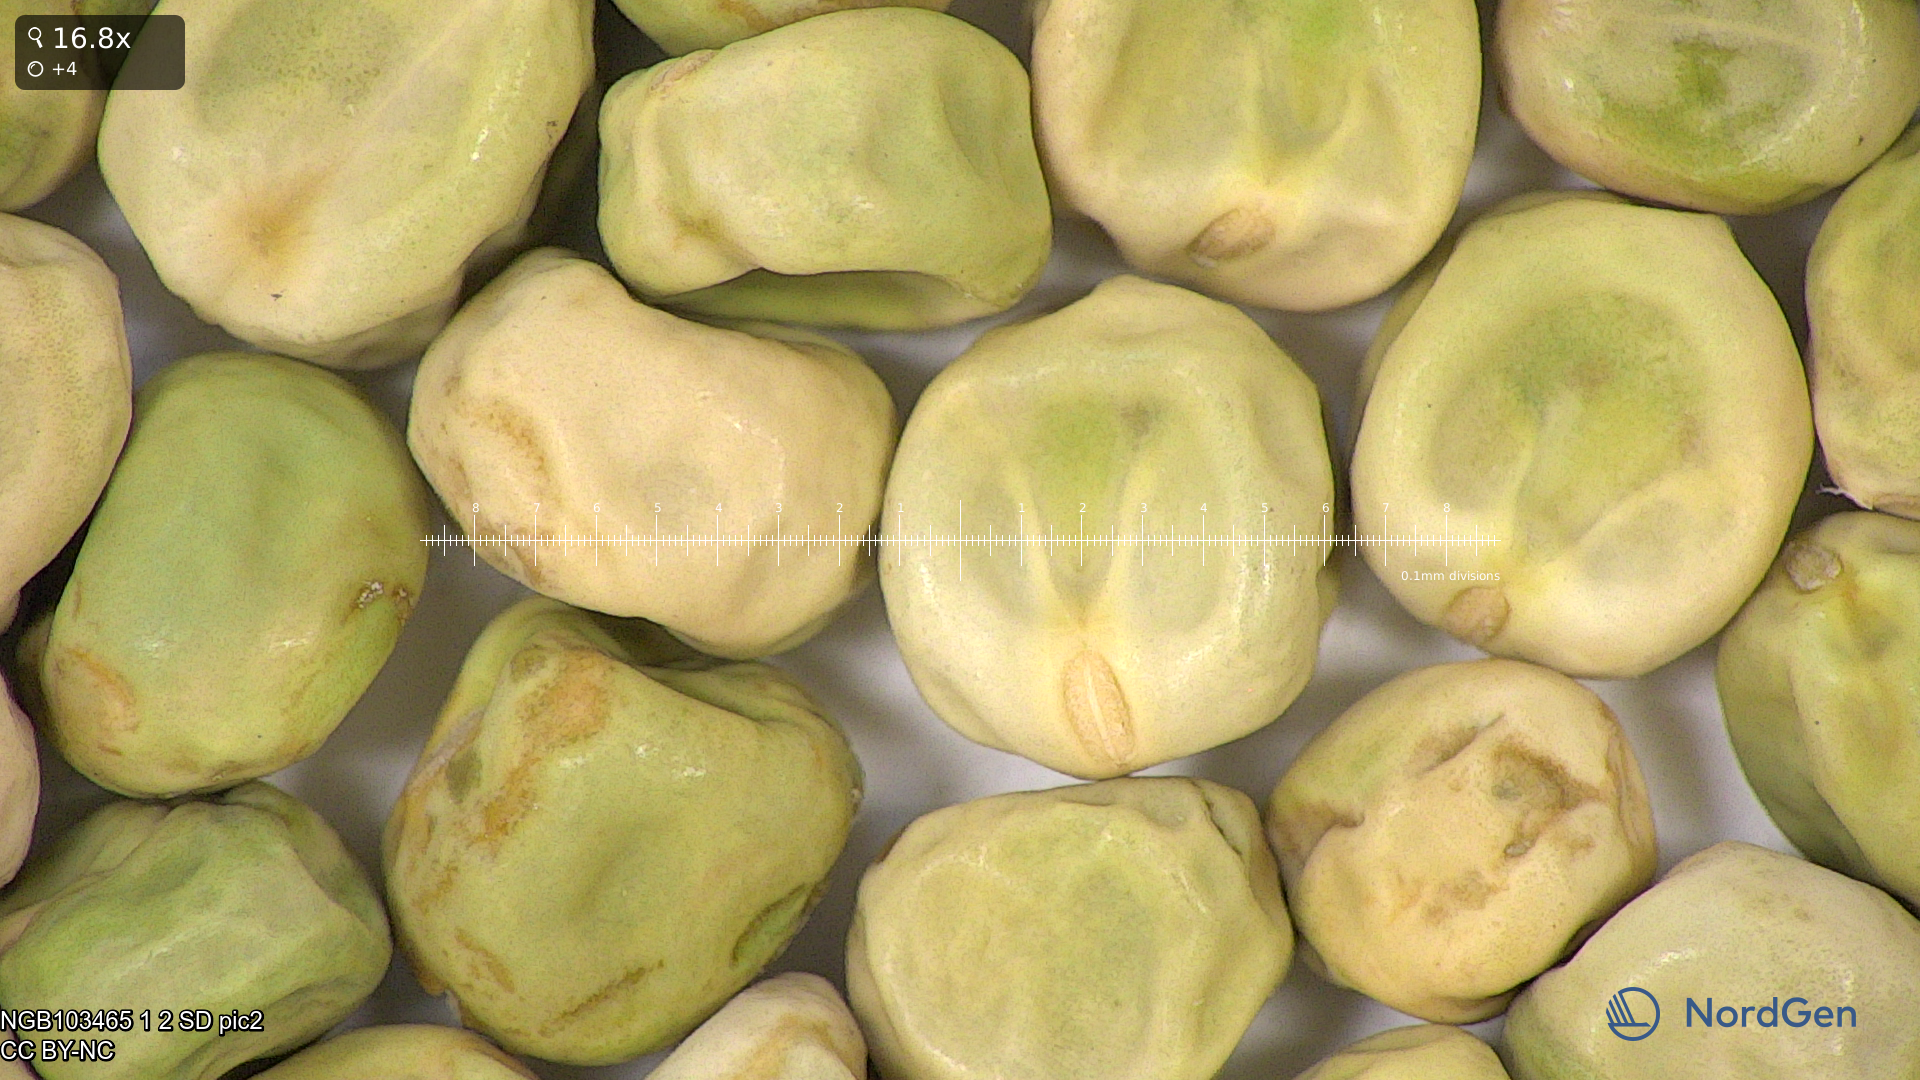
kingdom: Plantae
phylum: Tracheophyta
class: Magnoliopsida
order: Fabales
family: Fabaceae
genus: Lathyrus
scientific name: Lathyrus oleraceus
